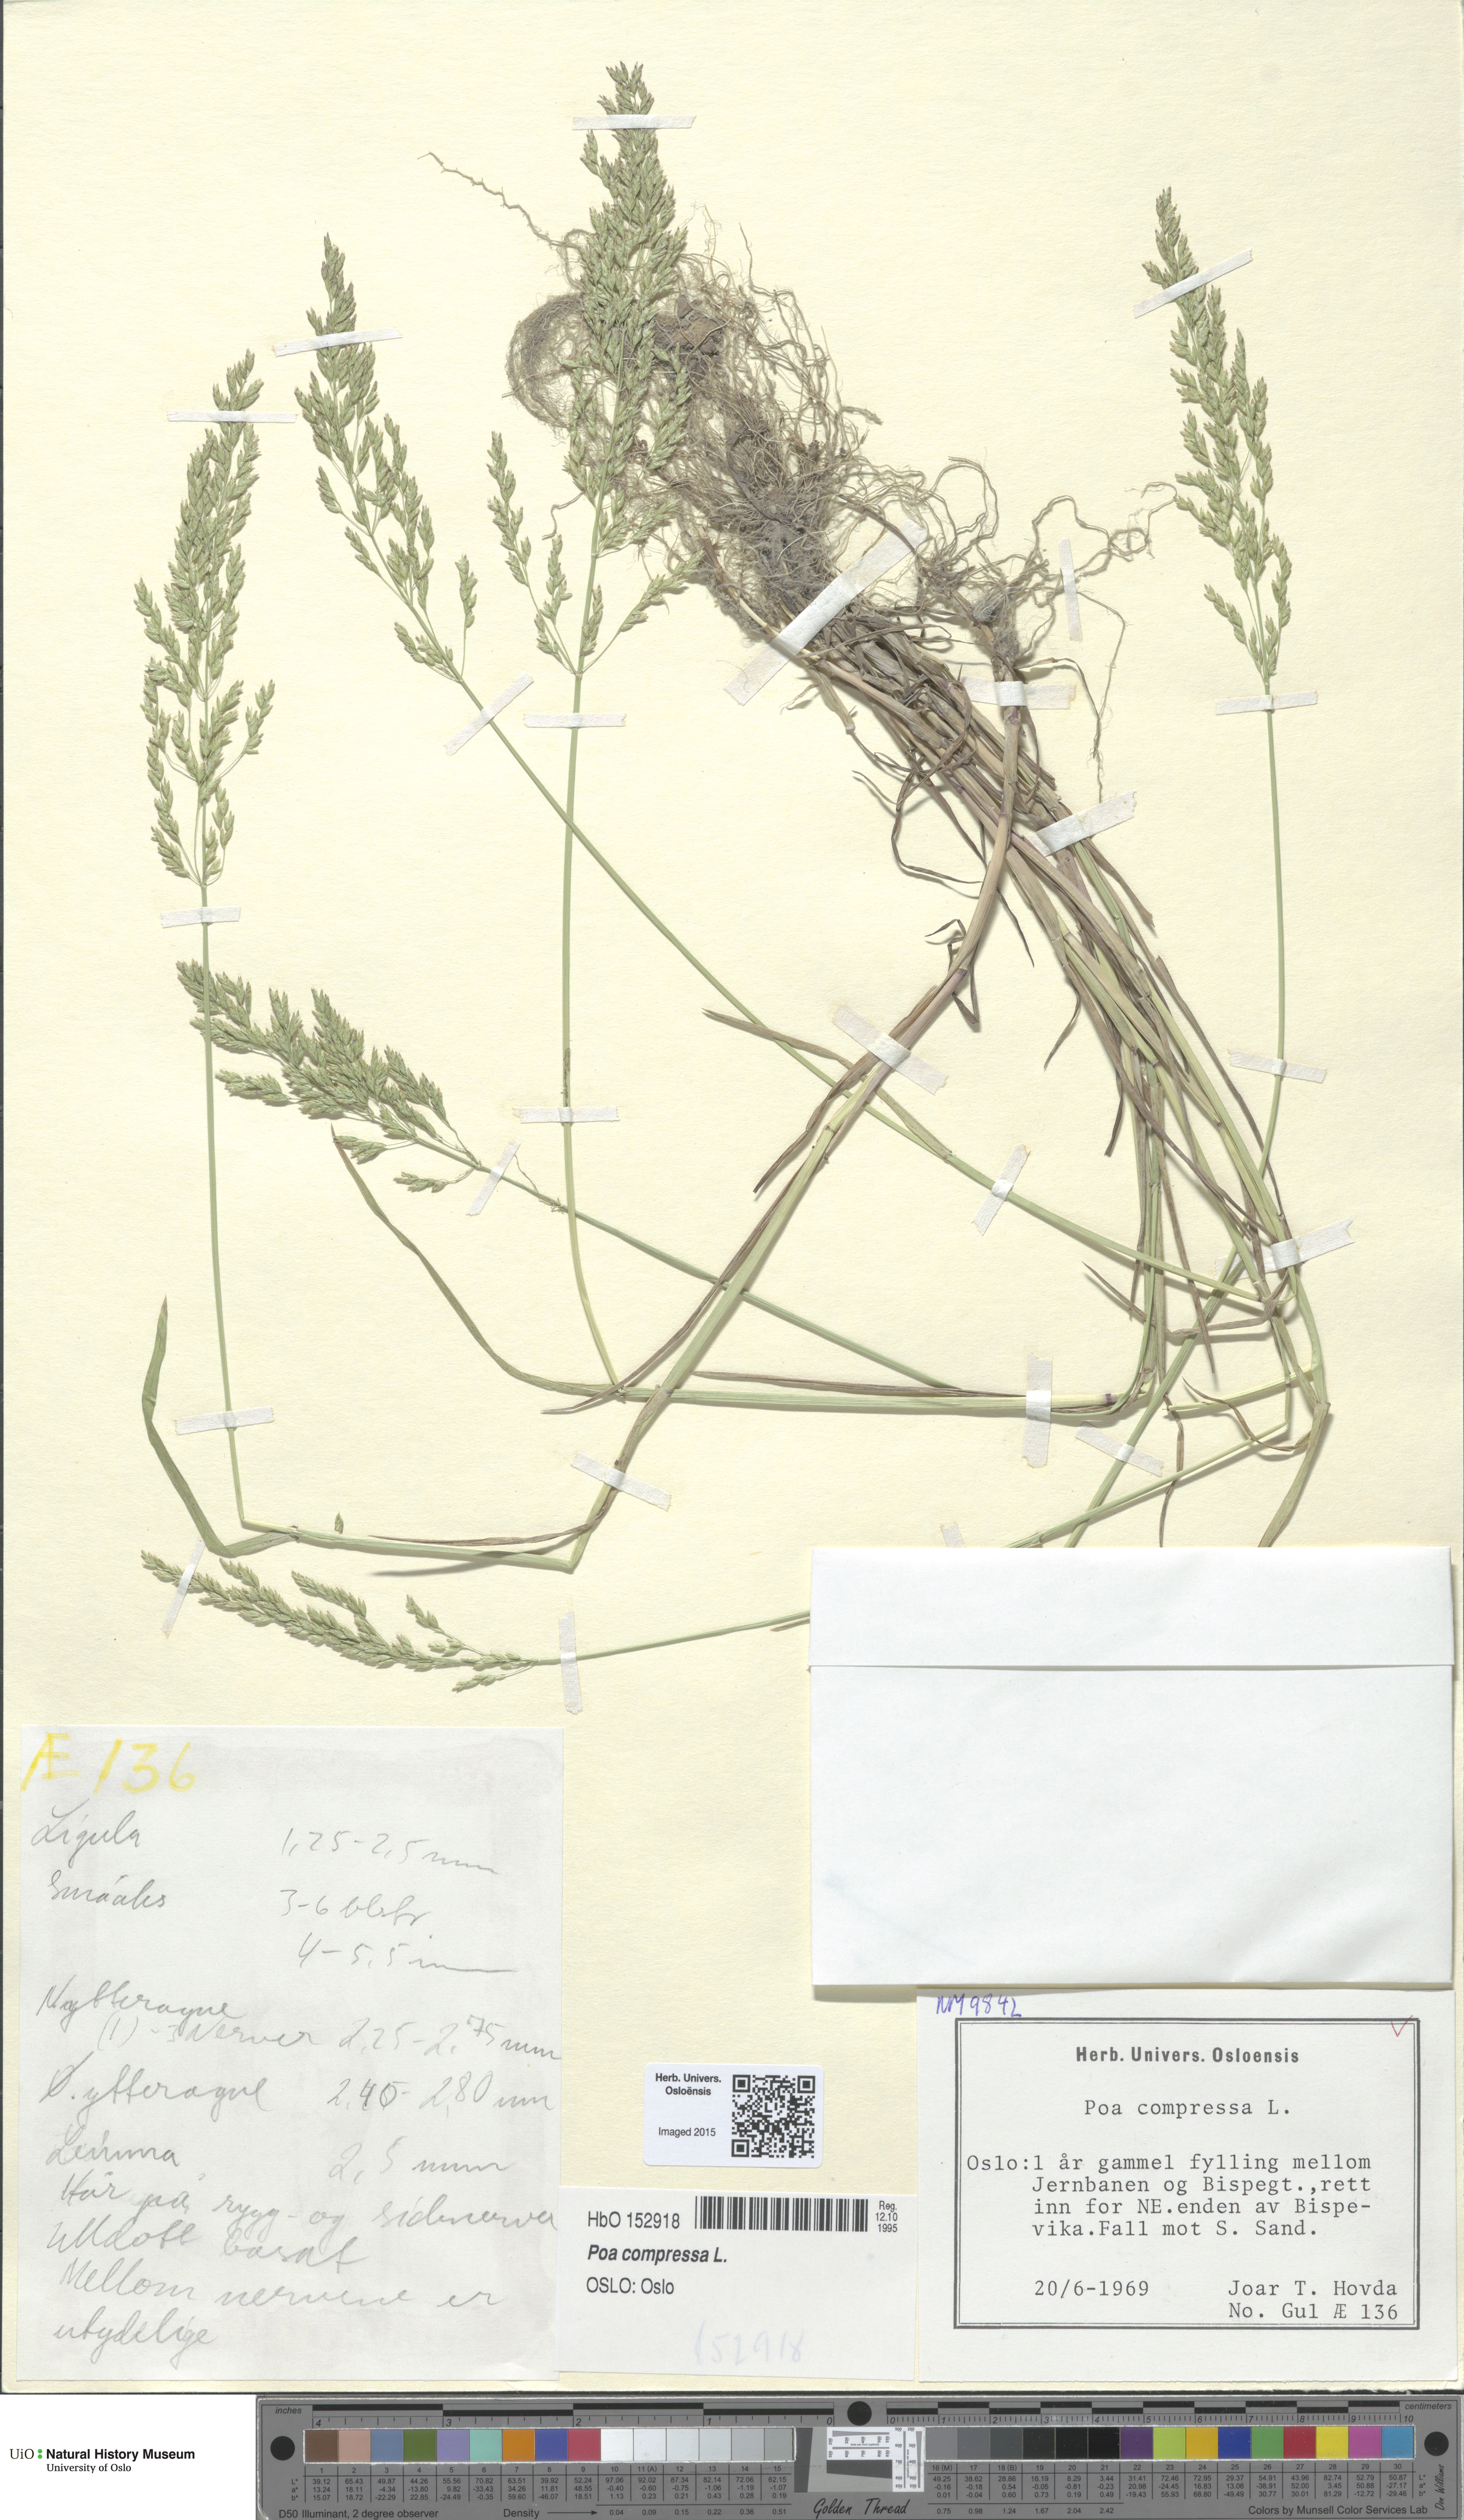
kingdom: Plantae
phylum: Tracheophyta
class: Liliopsida
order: Poales
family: Poaceae
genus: Poa
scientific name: Poa compressa
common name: Canada bluegrass
